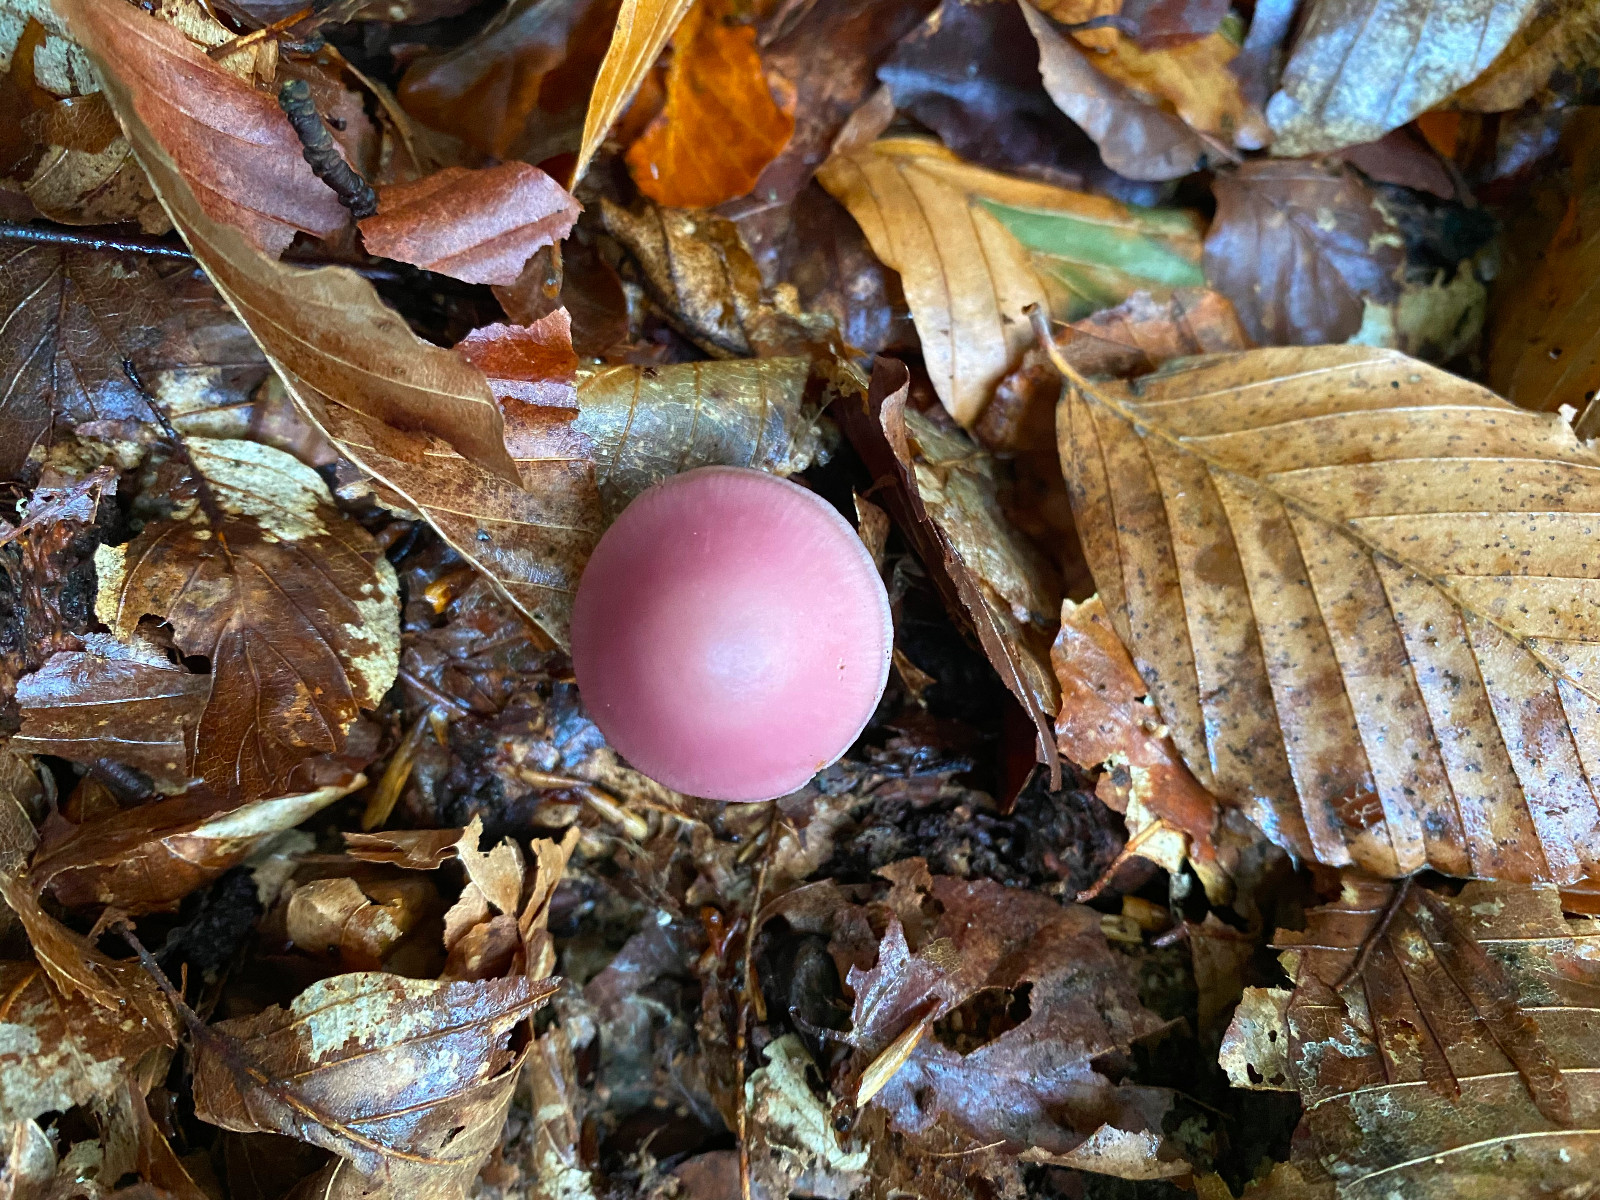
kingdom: Fungi
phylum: Basidiomycota
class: Agaricomycetes
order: Agaricales
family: Mycenaceae
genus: Mycena
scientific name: Mycena rosea
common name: rosa huesvamp
